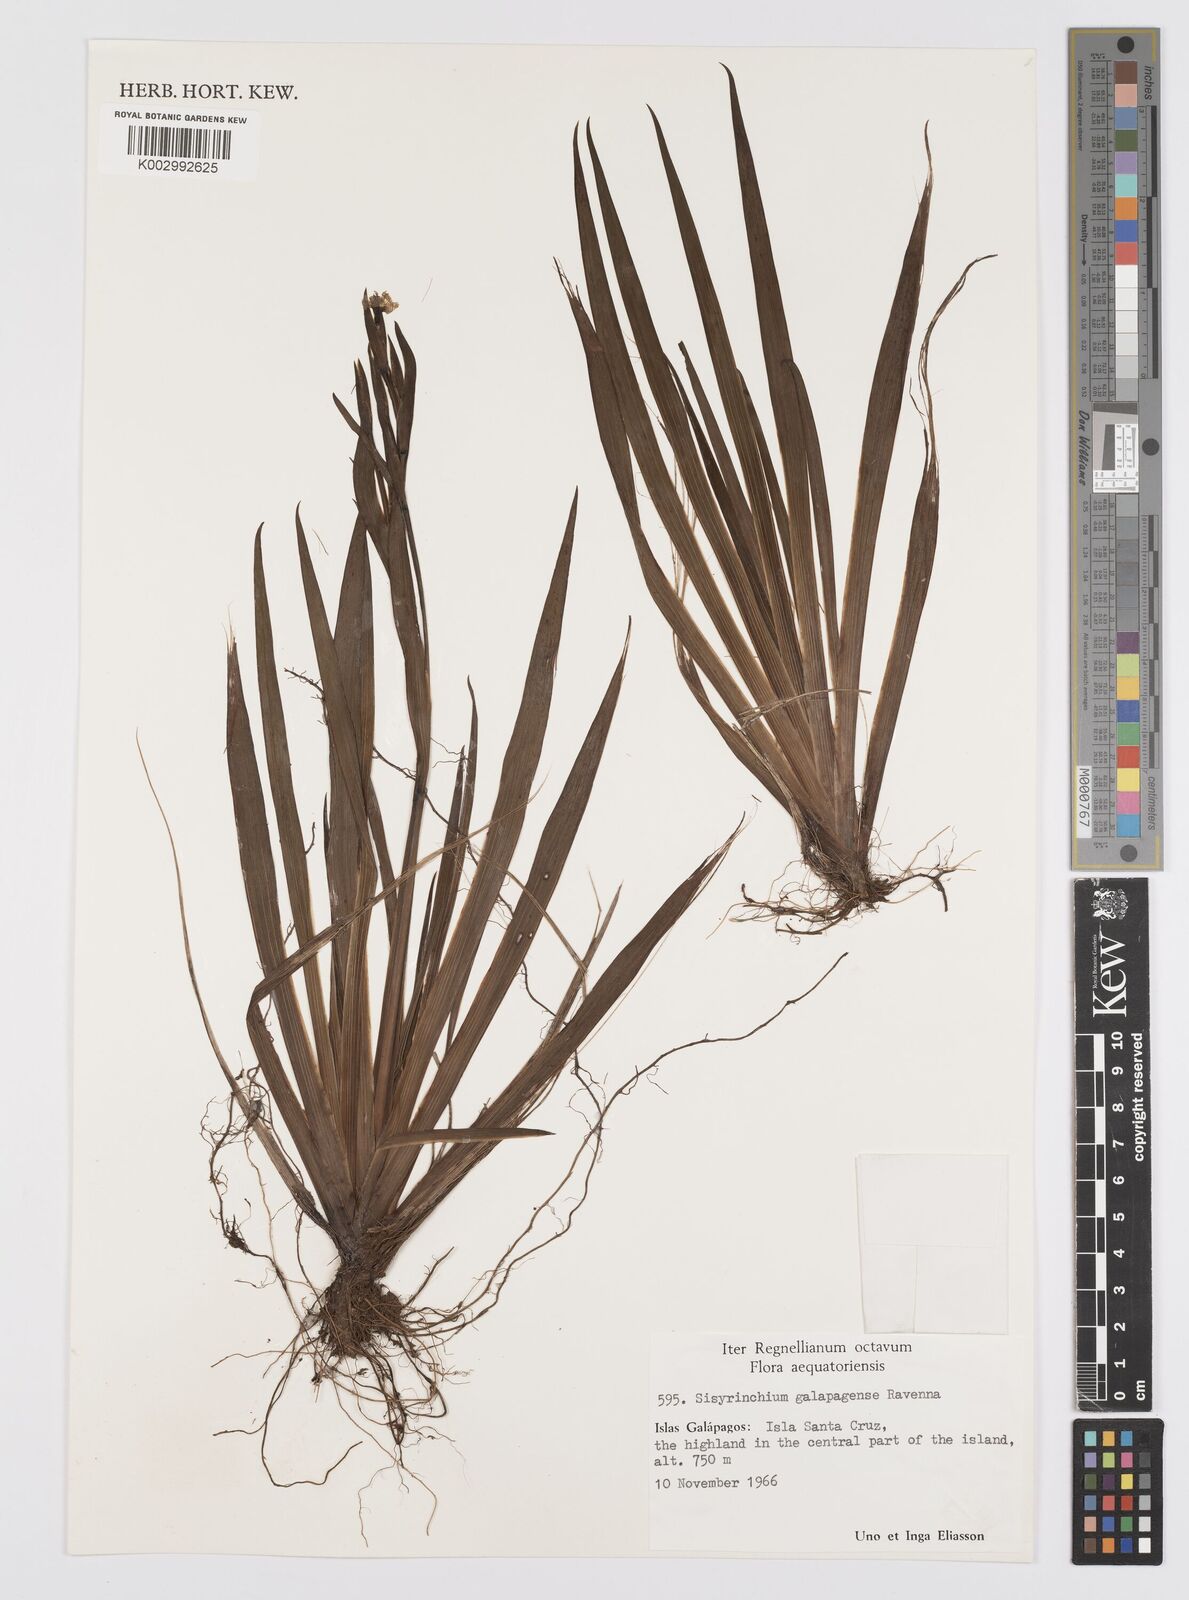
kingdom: Plantae
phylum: Tracheophyta
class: Liliopsida
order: Asparagales
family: Iridaceae
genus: Sisyrinchium
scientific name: Sisyrinchium galapagense
